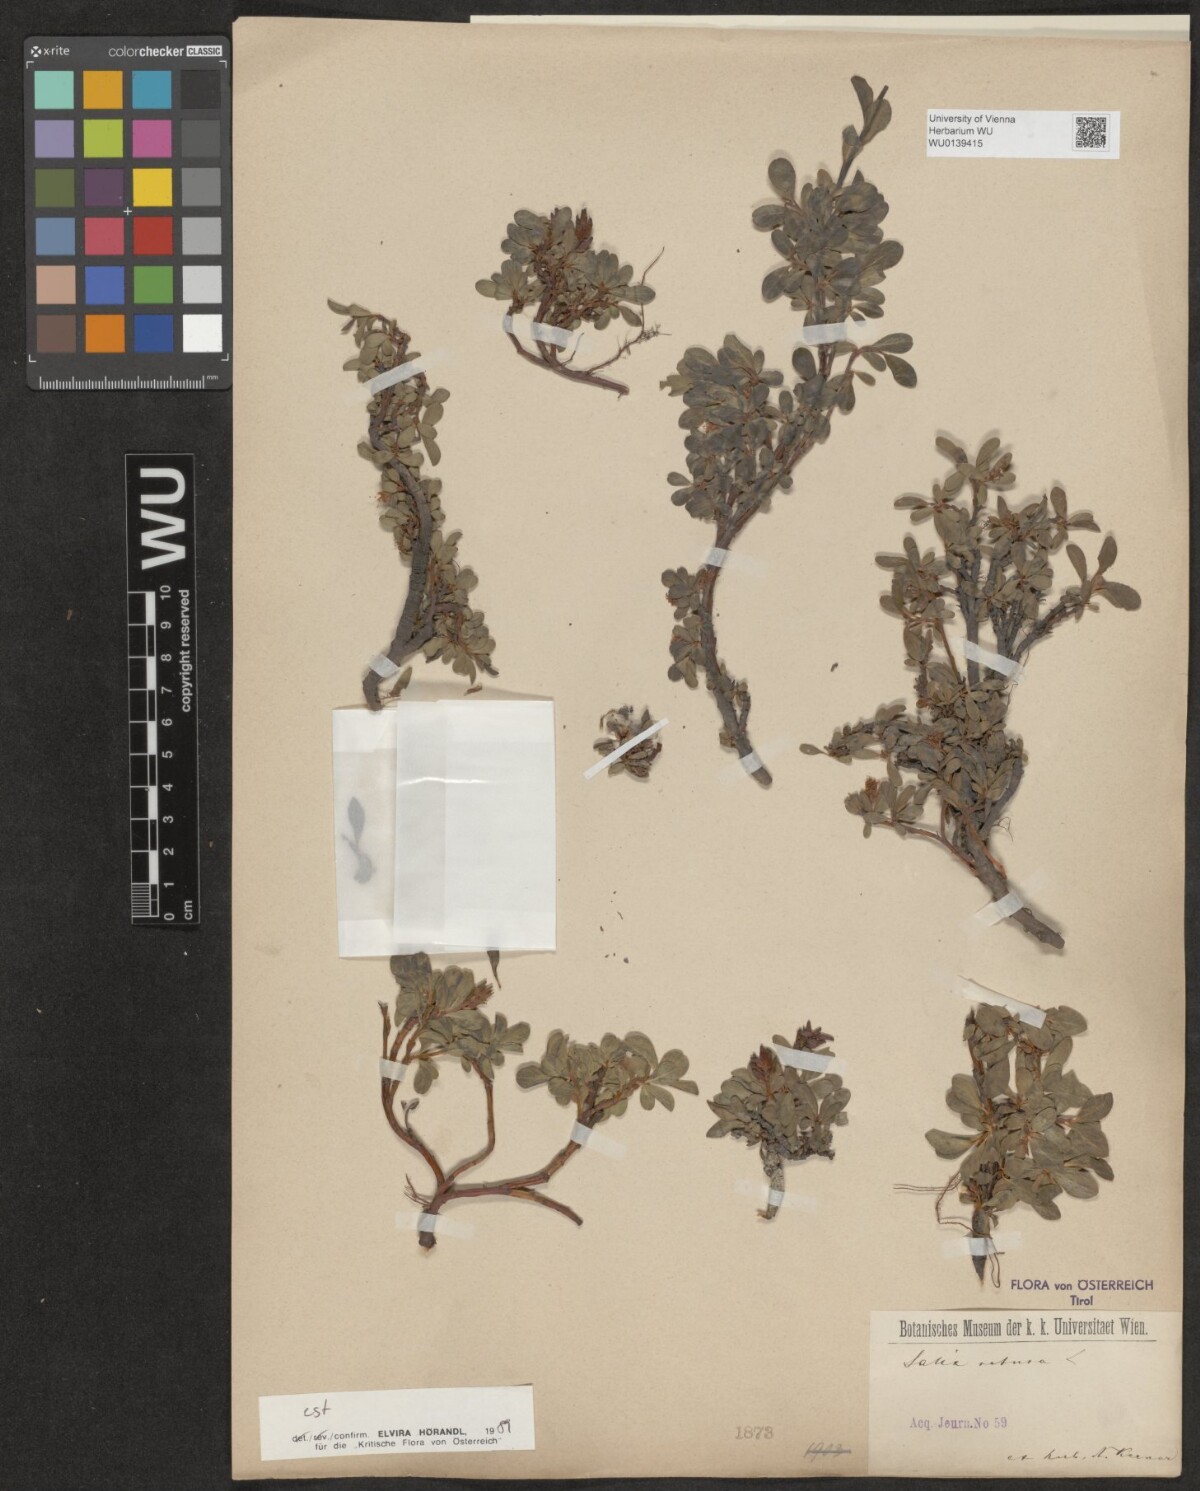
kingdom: Plantae
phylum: Tracheophyta
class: Magnoliopsida
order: Malpighiales
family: Salicaceae
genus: Salix
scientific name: Salix retusa
